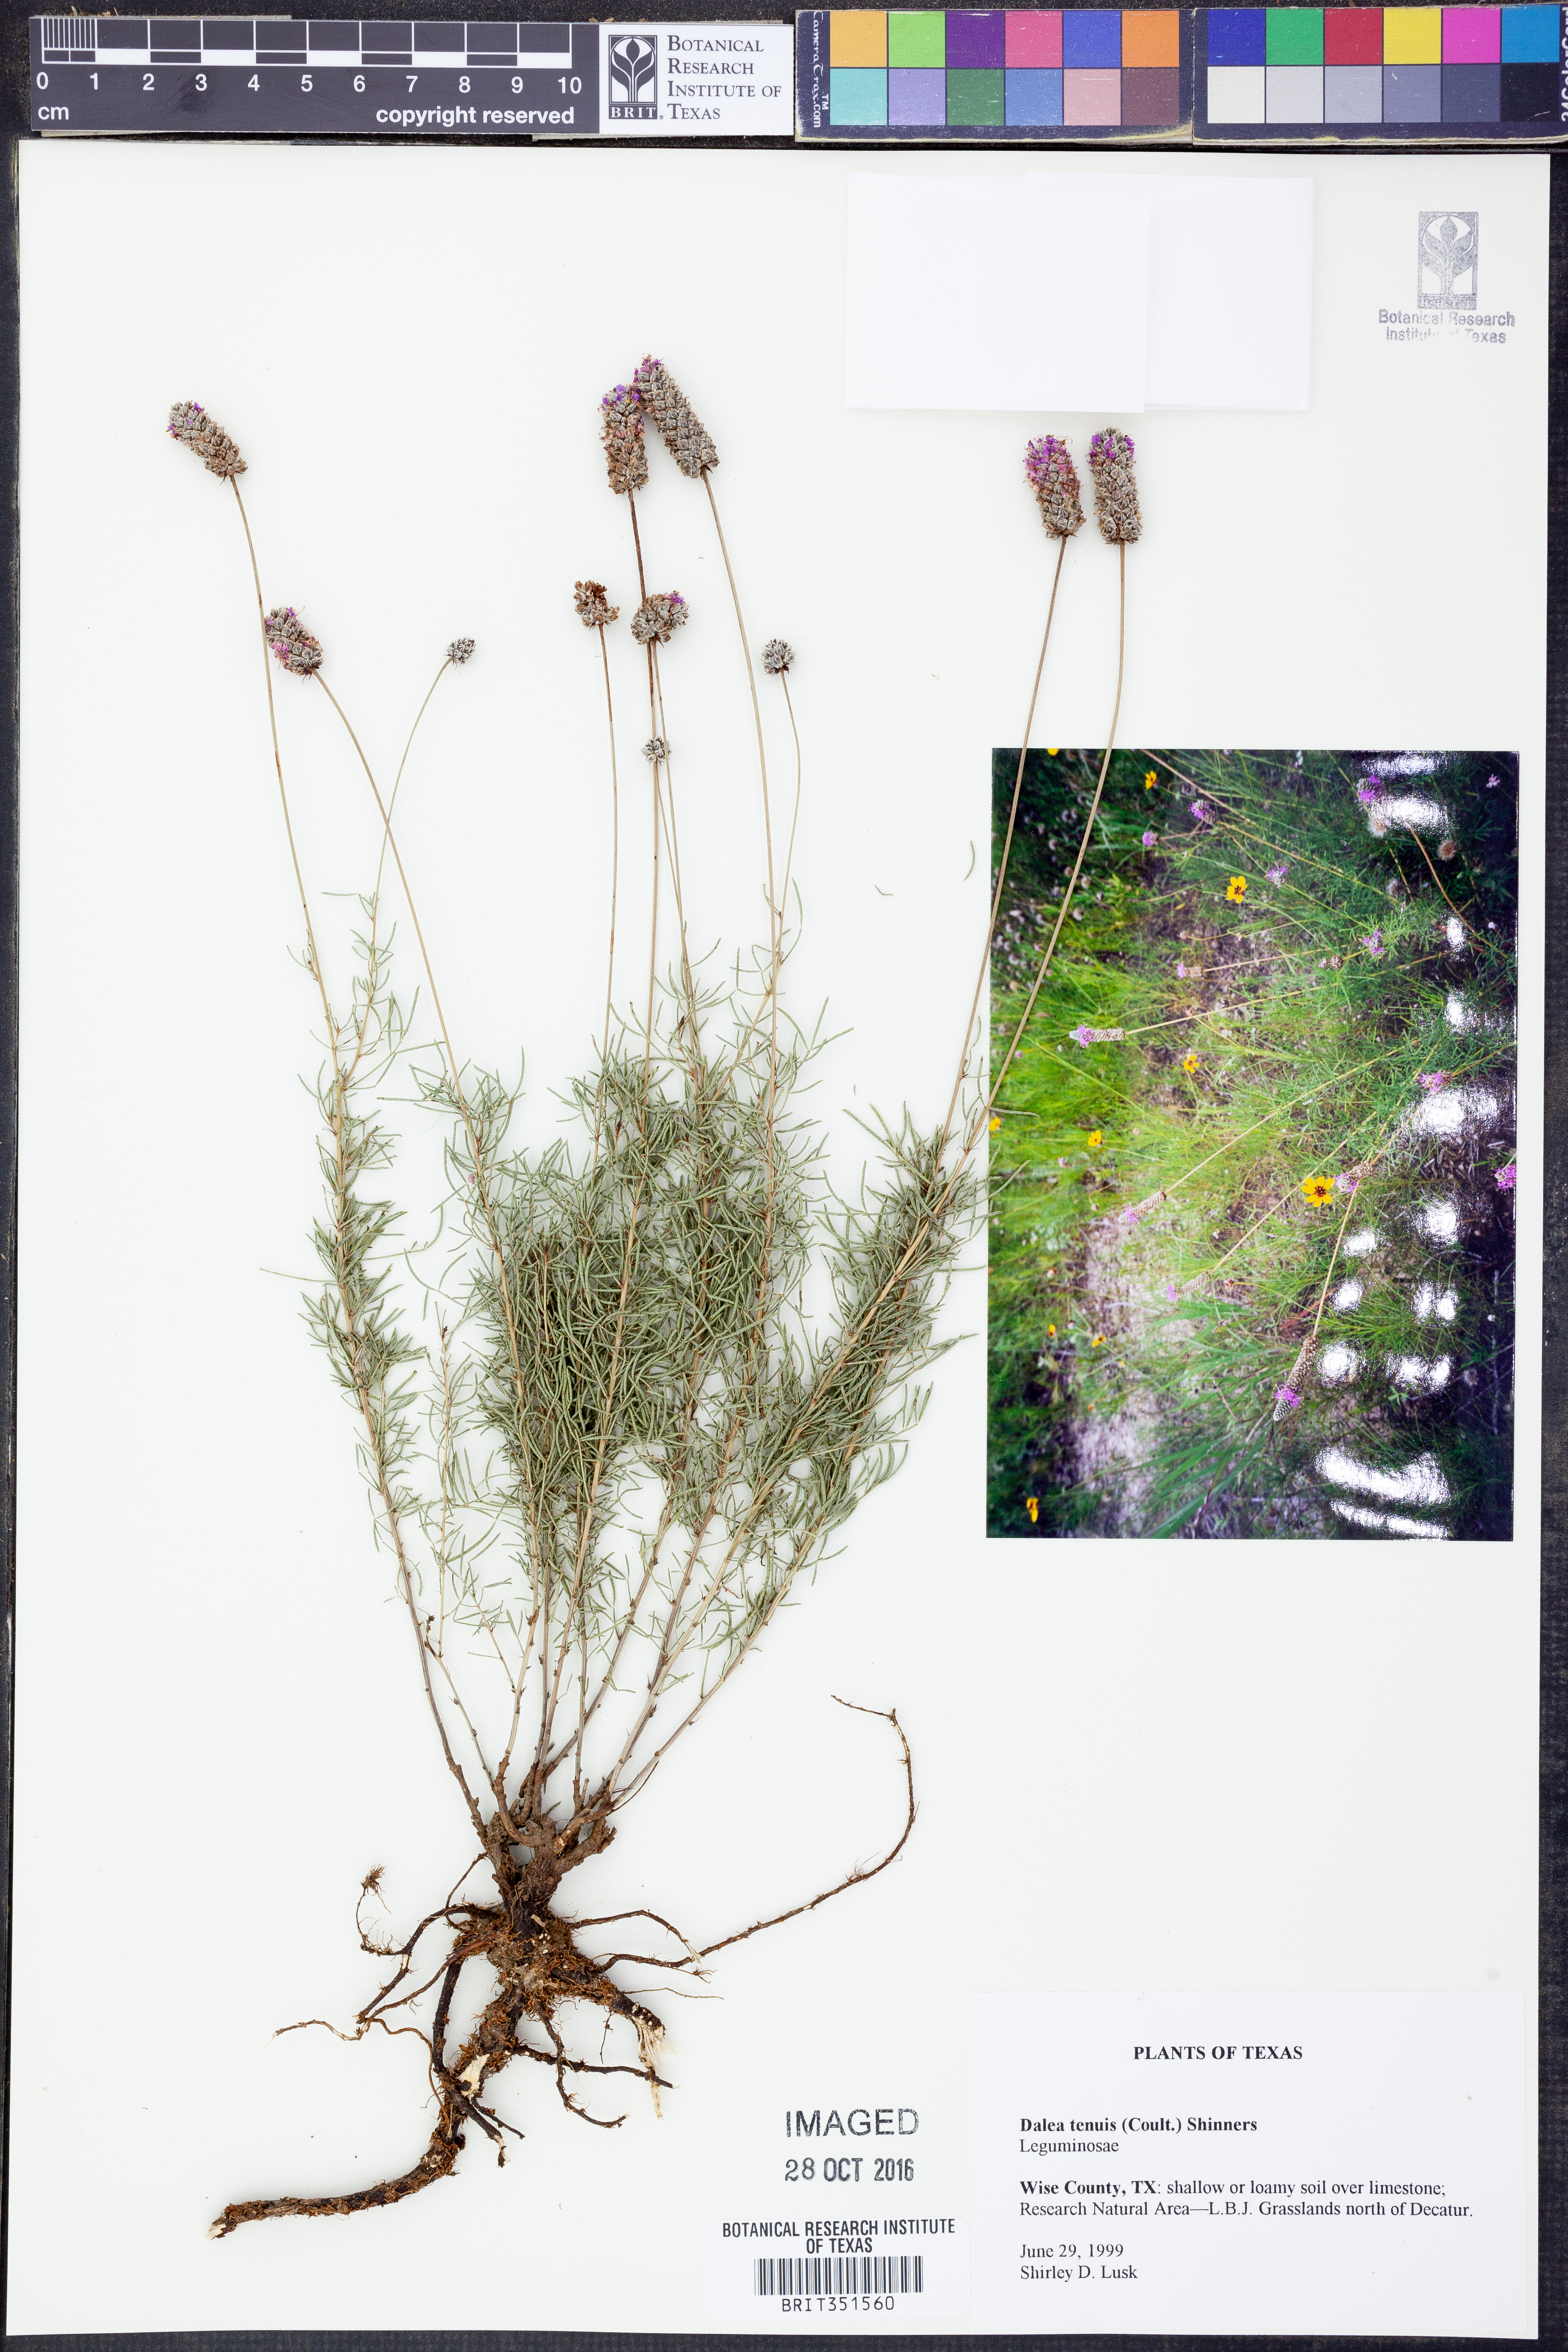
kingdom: Plantae
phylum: Tracheophyta
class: Magnoliopsida
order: Fabales
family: Fabaceae
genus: Dalea
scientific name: Dalea tenuis
